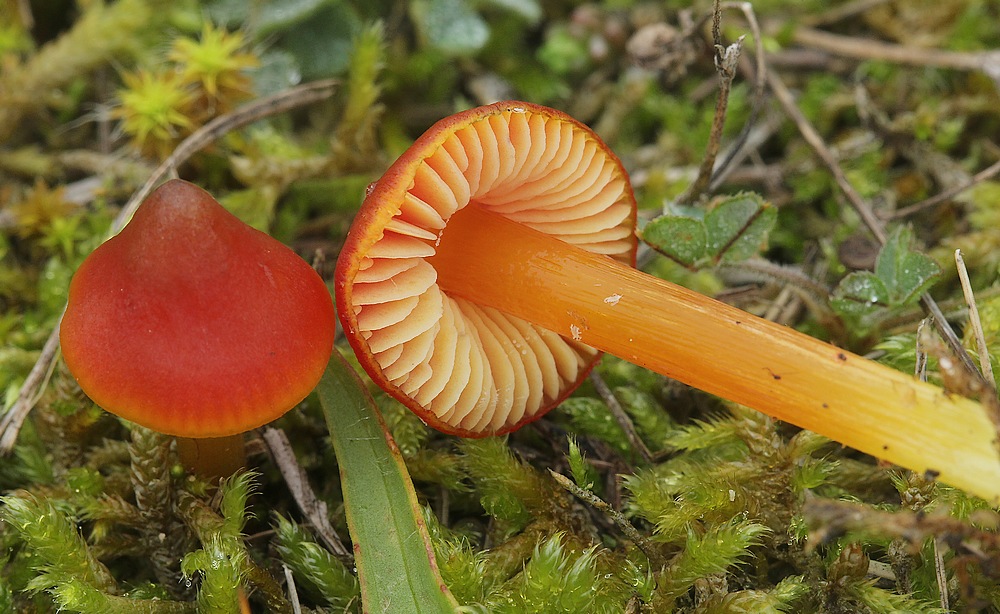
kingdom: Fungi
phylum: Basidiomycota
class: Agaricomycetes
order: Agaricales
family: Hygrophoraceae
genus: Hygrocybe
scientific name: Hygrocybe conica
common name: kegle-vokshat
